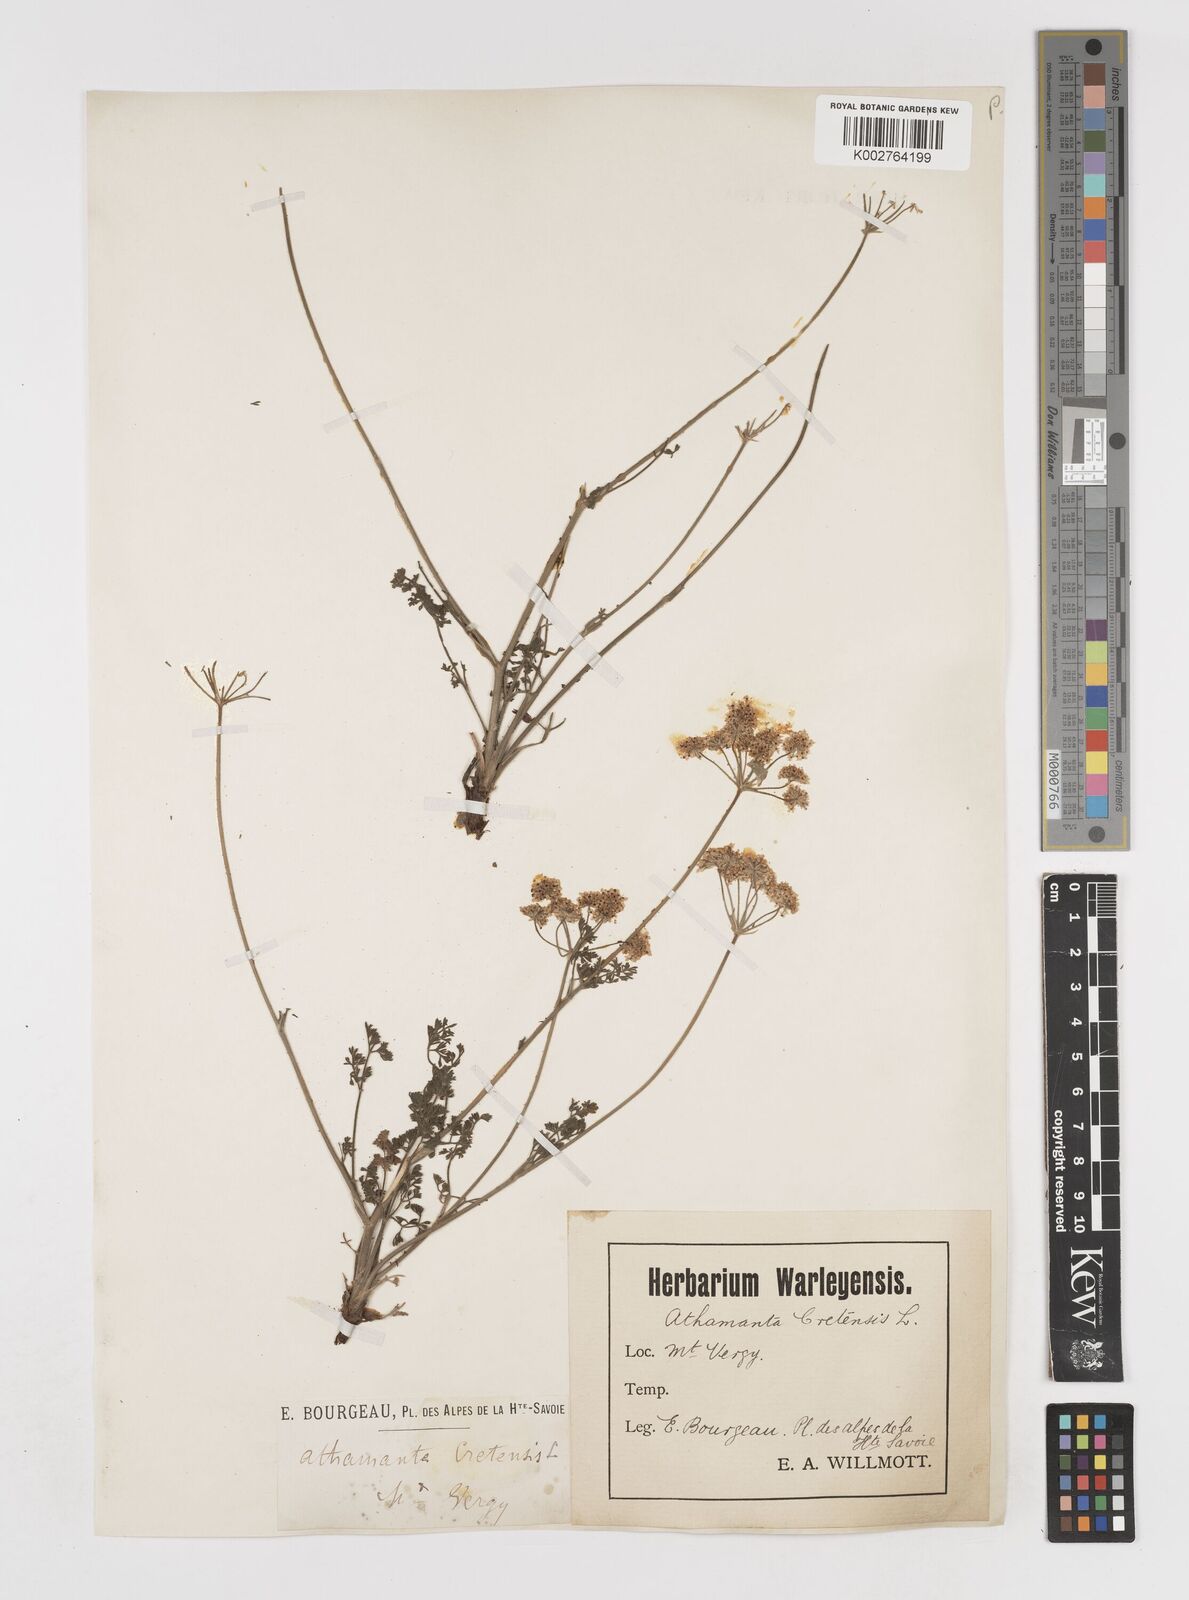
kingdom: Plantae
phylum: Tracheophyta
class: Magnoliopsida
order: Apiales
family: Apiaceae
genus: Athamanta
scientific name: Athamanta cretensis
